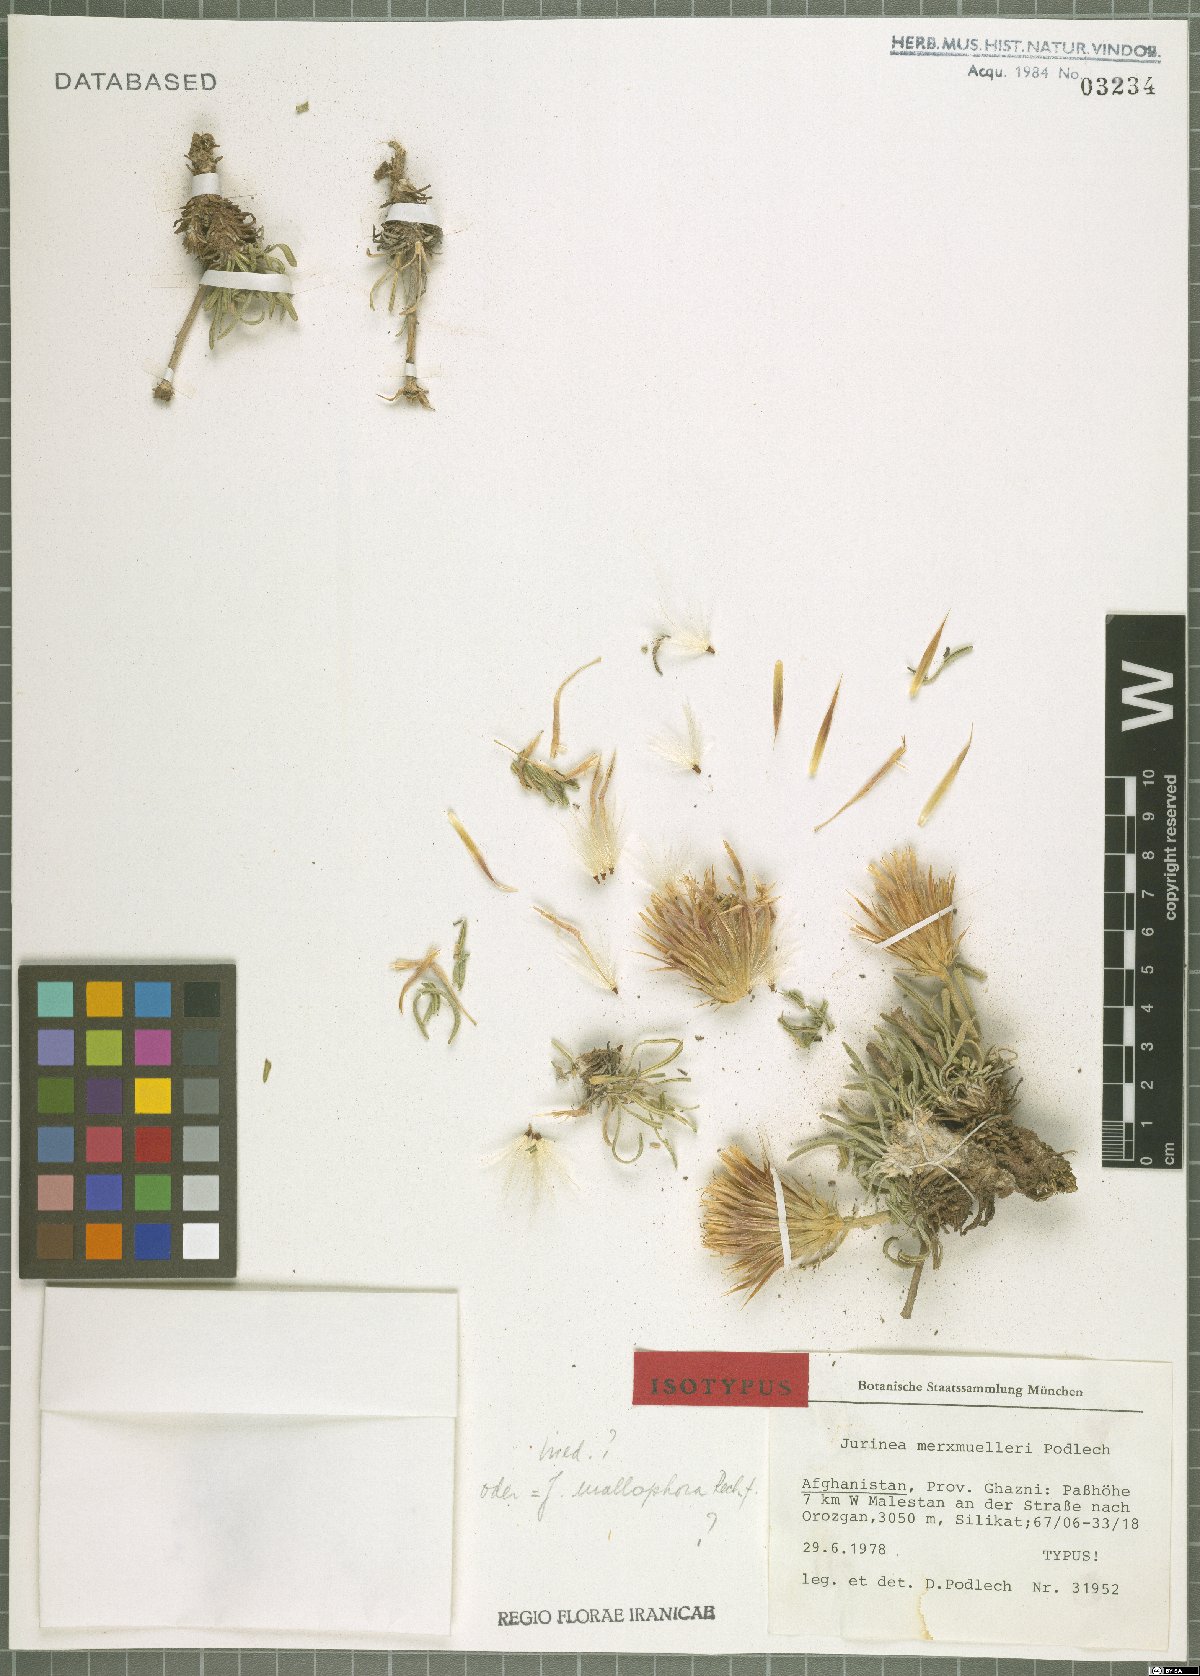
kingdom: Plantae
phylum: Tracheophyta
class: Magnoliopsida
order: Asterales
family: Asteraceae
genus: Jurinea
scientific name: Jurinea merxmuelleri
